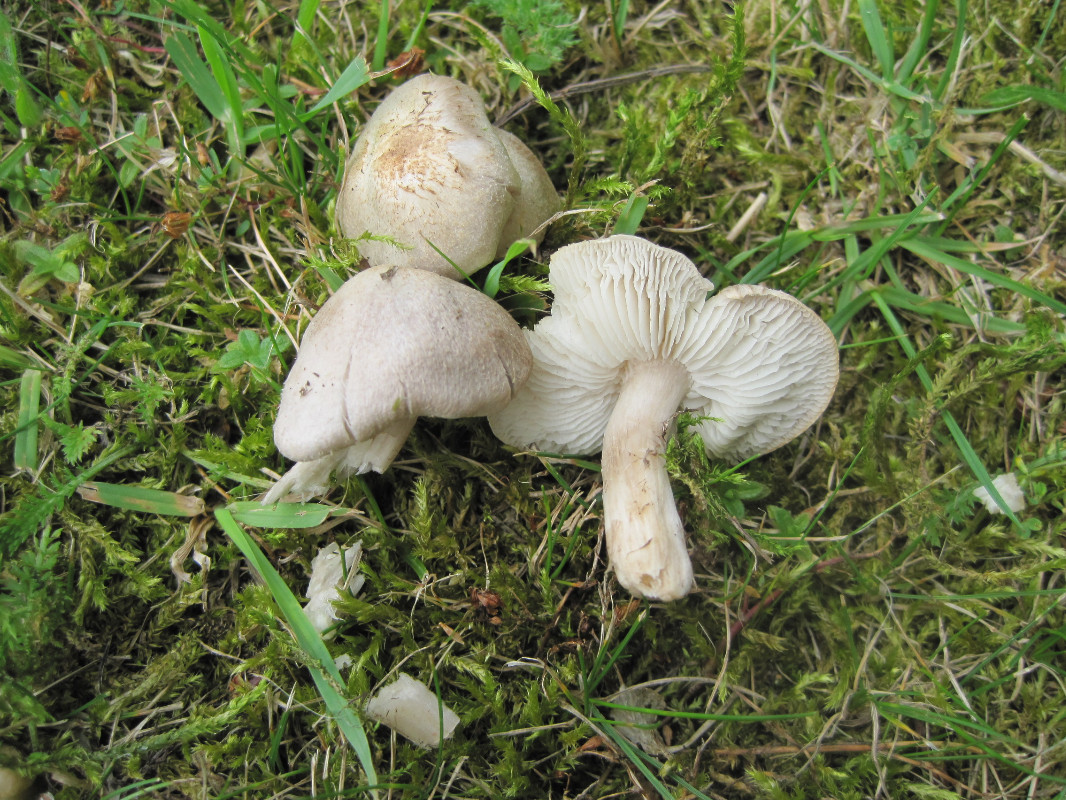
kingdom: Fungi
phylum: Basidiomycota
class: Agaricomycetes
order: Agaricales
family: Tricholomataceae
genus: Tricholoma
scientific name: Tricholoma argyraceum
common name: spids ridderhat
